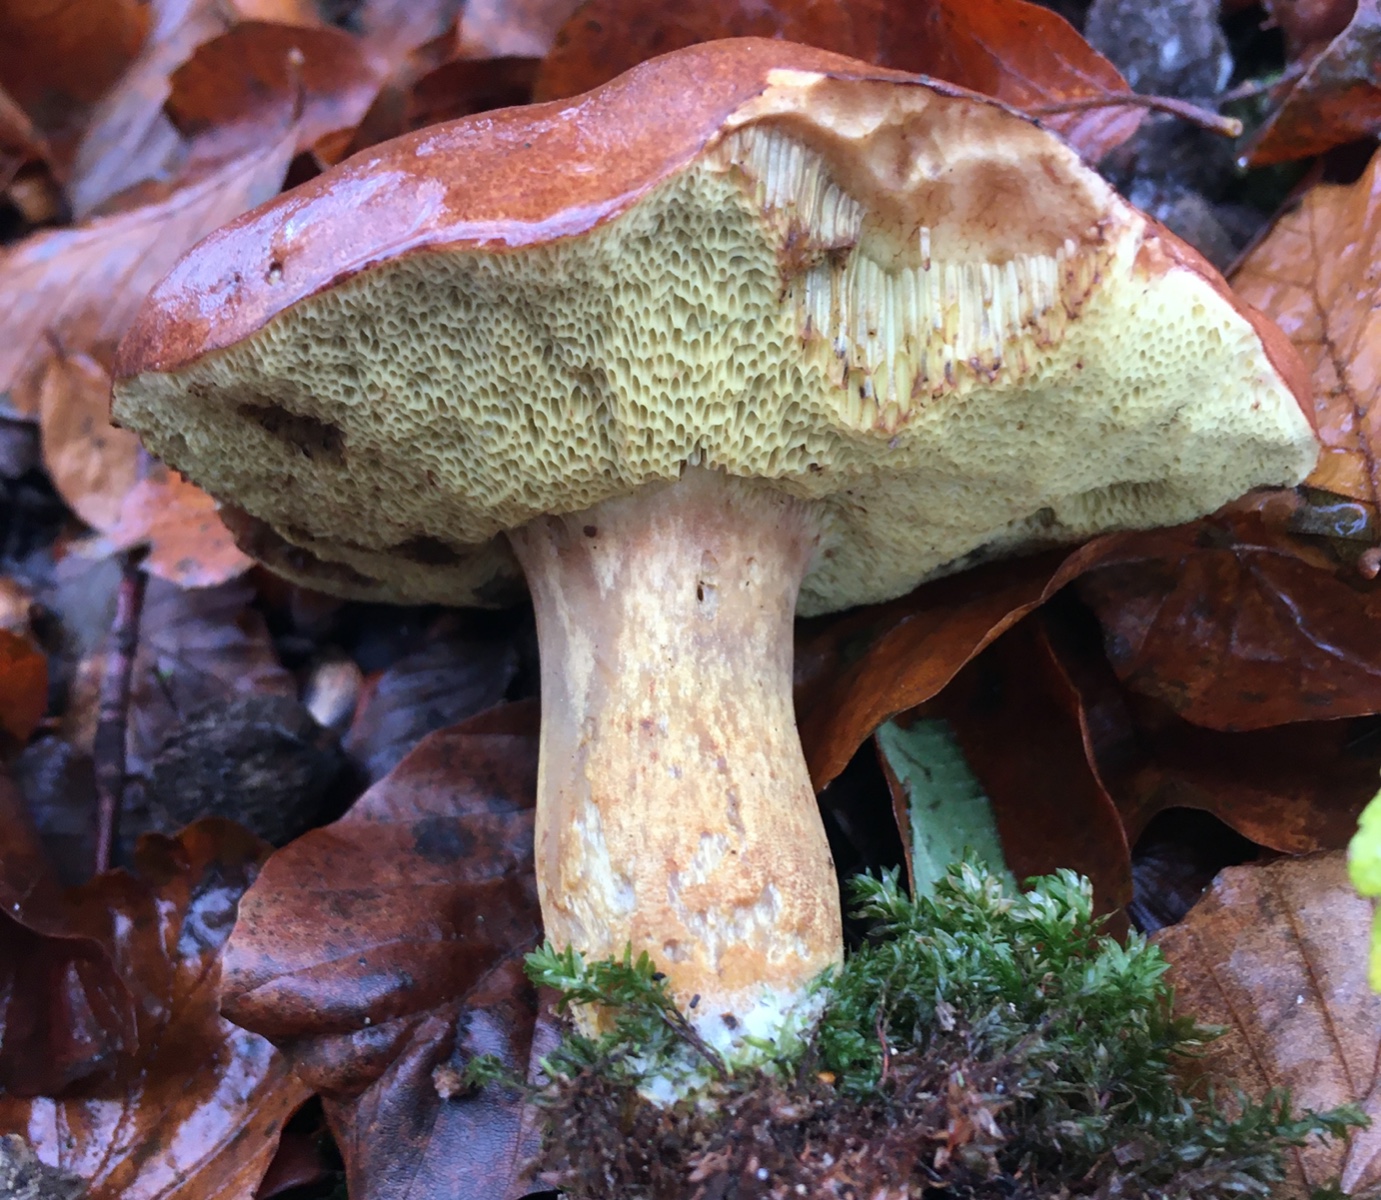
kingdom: Fungi
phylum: Basidiomycota
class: Agaricomycetes
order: Boletales
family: Boletaceae
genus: Imleria
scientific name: Imleria badia
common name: brunstokket rørhat
